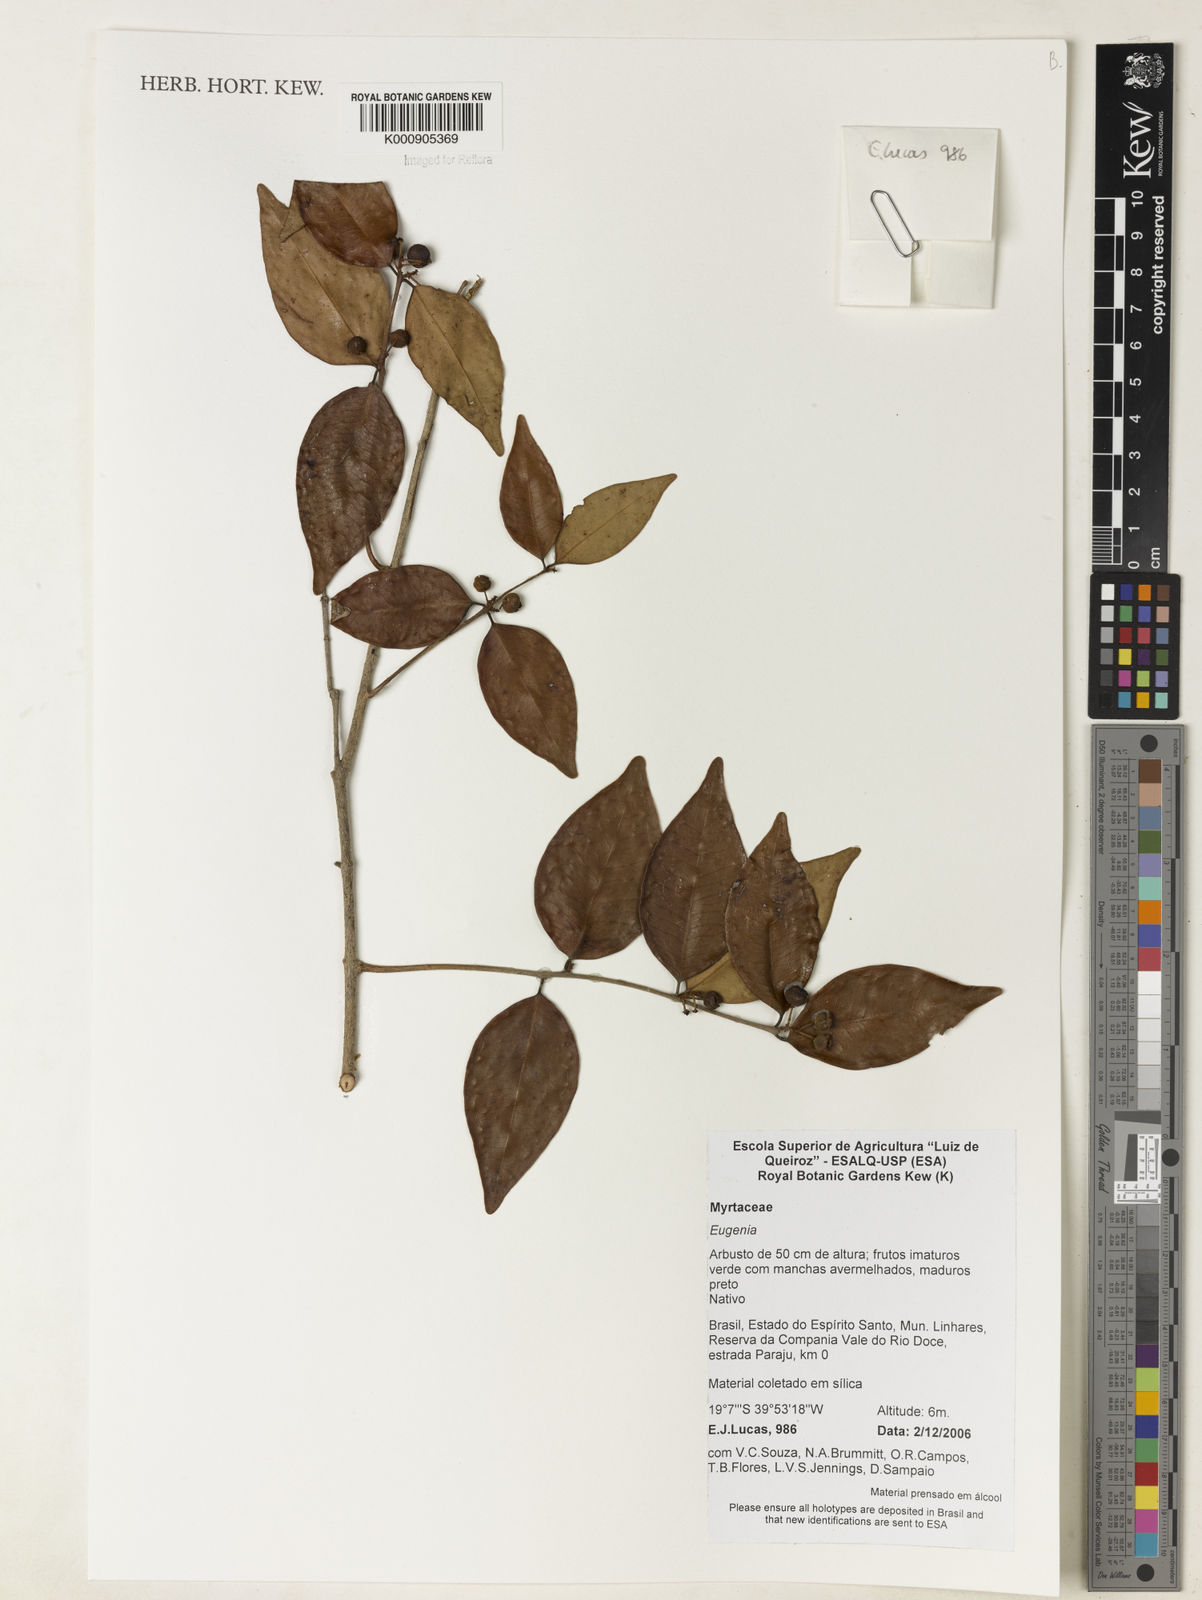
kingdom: Plantae
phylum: Tracheophyta
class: Magnoliopsida
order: Myrtales
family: Myrtaceae
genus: Eugenia
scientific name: Eugenia brejoensis
